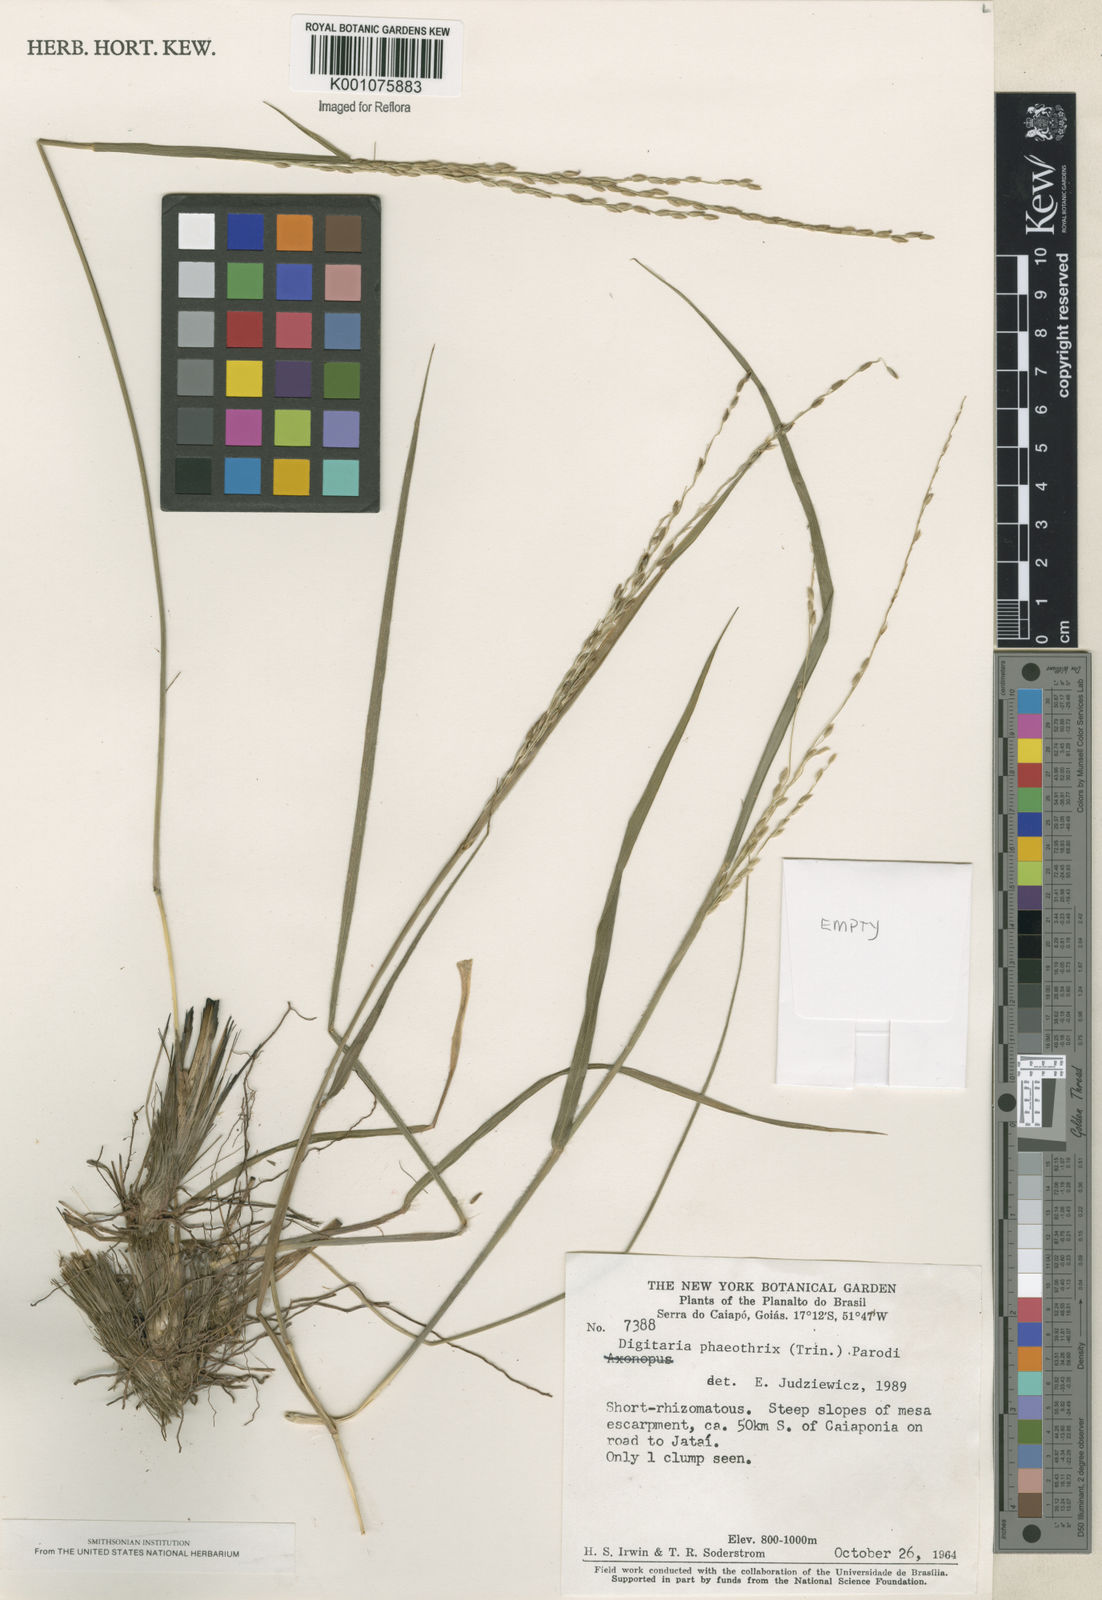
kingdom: Plantae
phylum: Tracheophyta
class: Liliopsida
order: Poales
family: Poaceae
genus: Digitaria
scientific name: Digitaria neesiana
